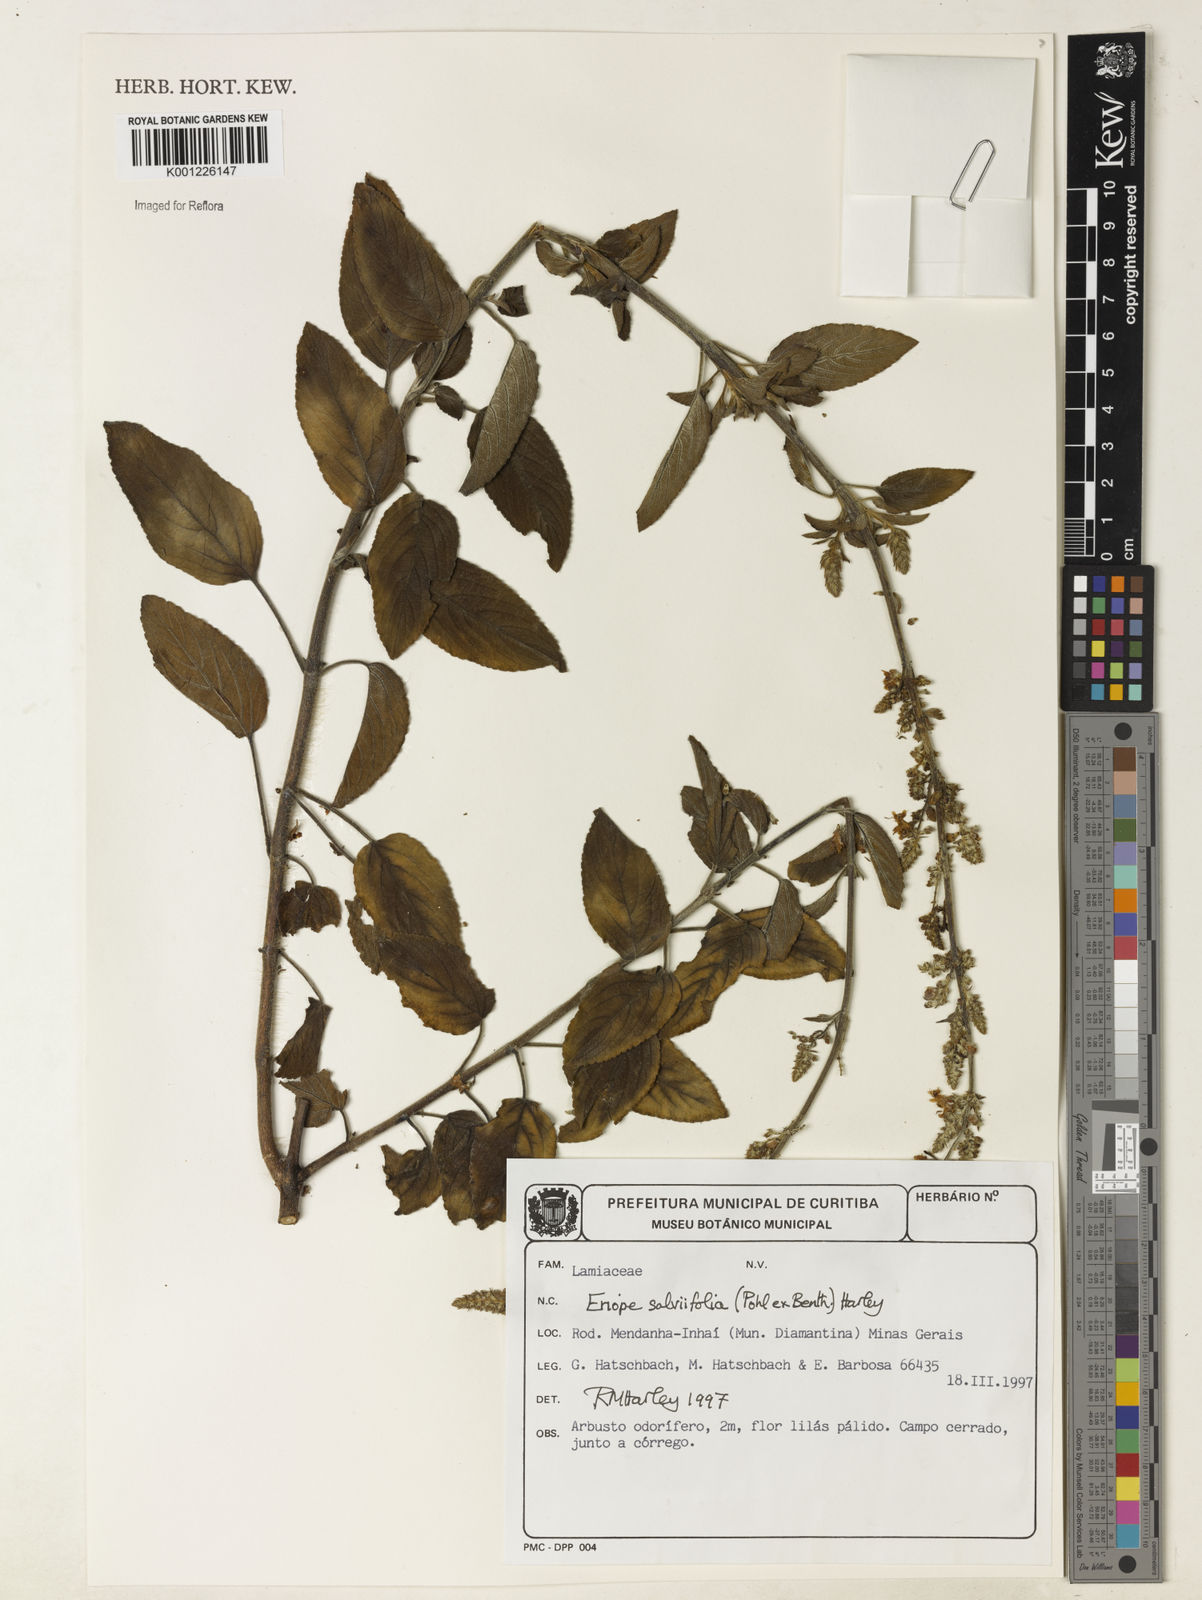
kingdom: Plantae
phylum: Tracheophyta
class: Magnoliopsida
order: Lamiales
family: Lamiaceae
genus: Eriope
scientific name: Eriope salviifolia
